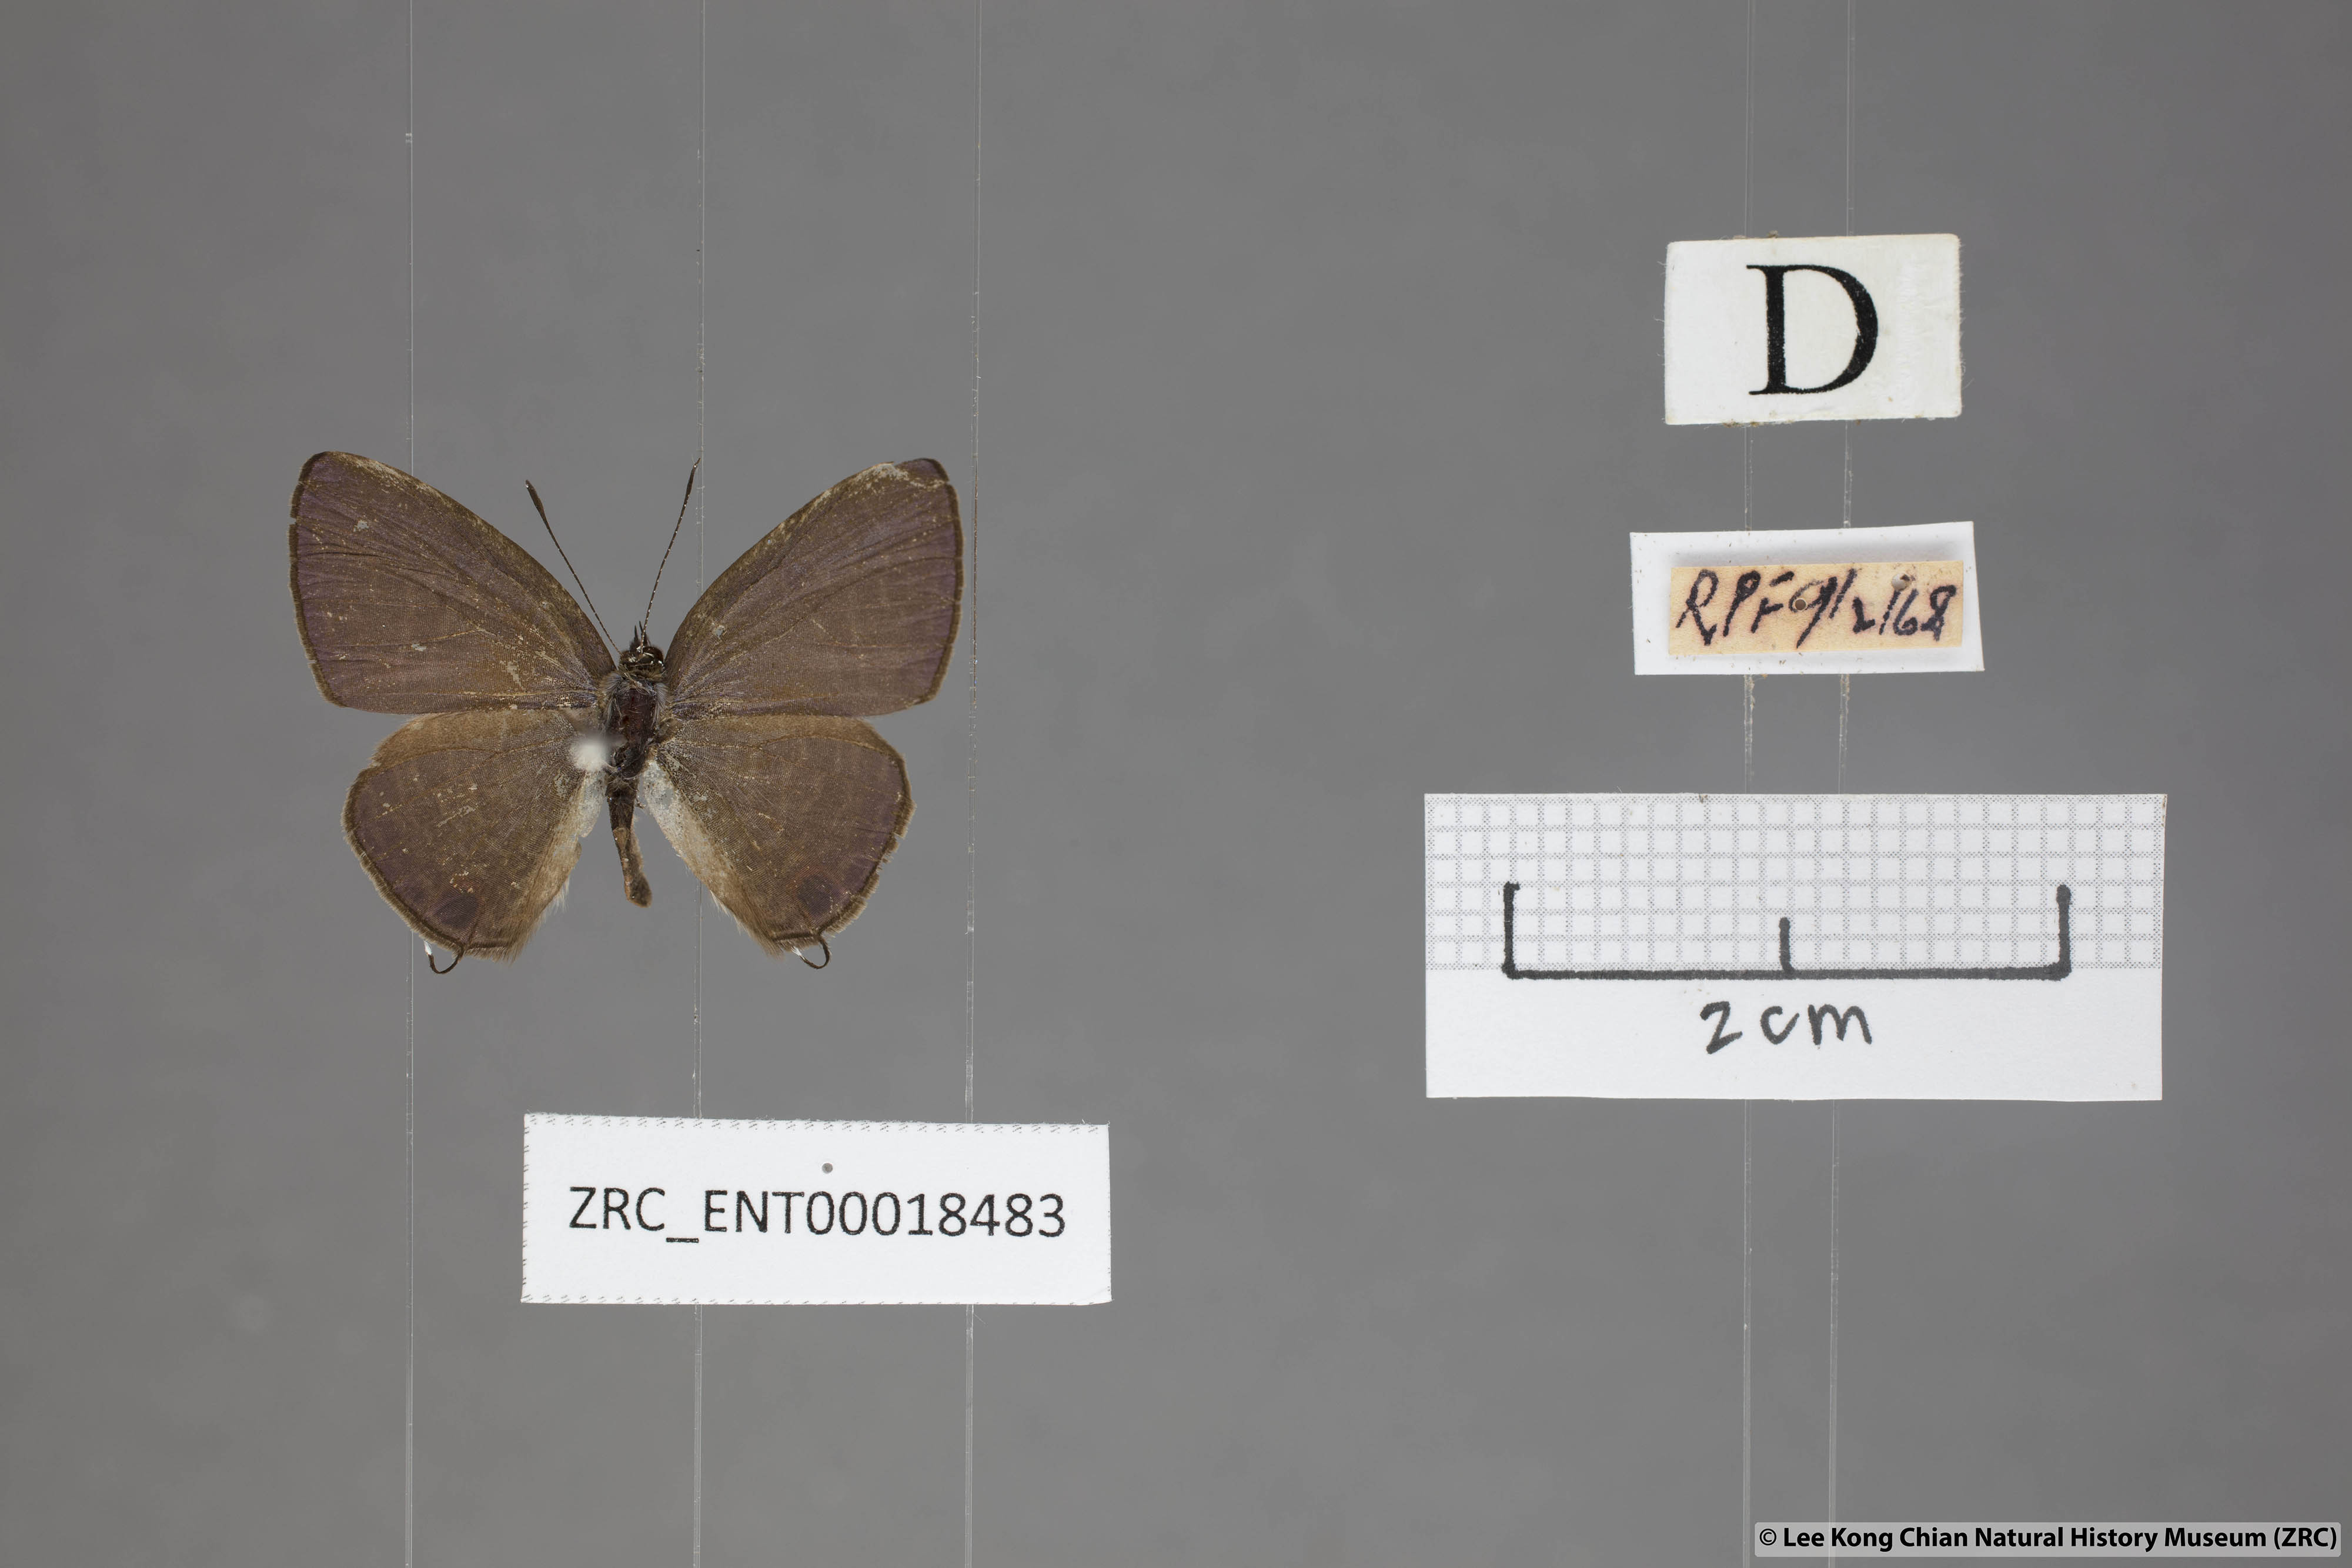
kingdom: Animalia
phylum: Arthropoda
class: Insecta
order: Lepidoptera
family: Lycaenidae
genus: Nacaduba
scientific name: Nacaduba subperusia
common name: Violet fourline blue
